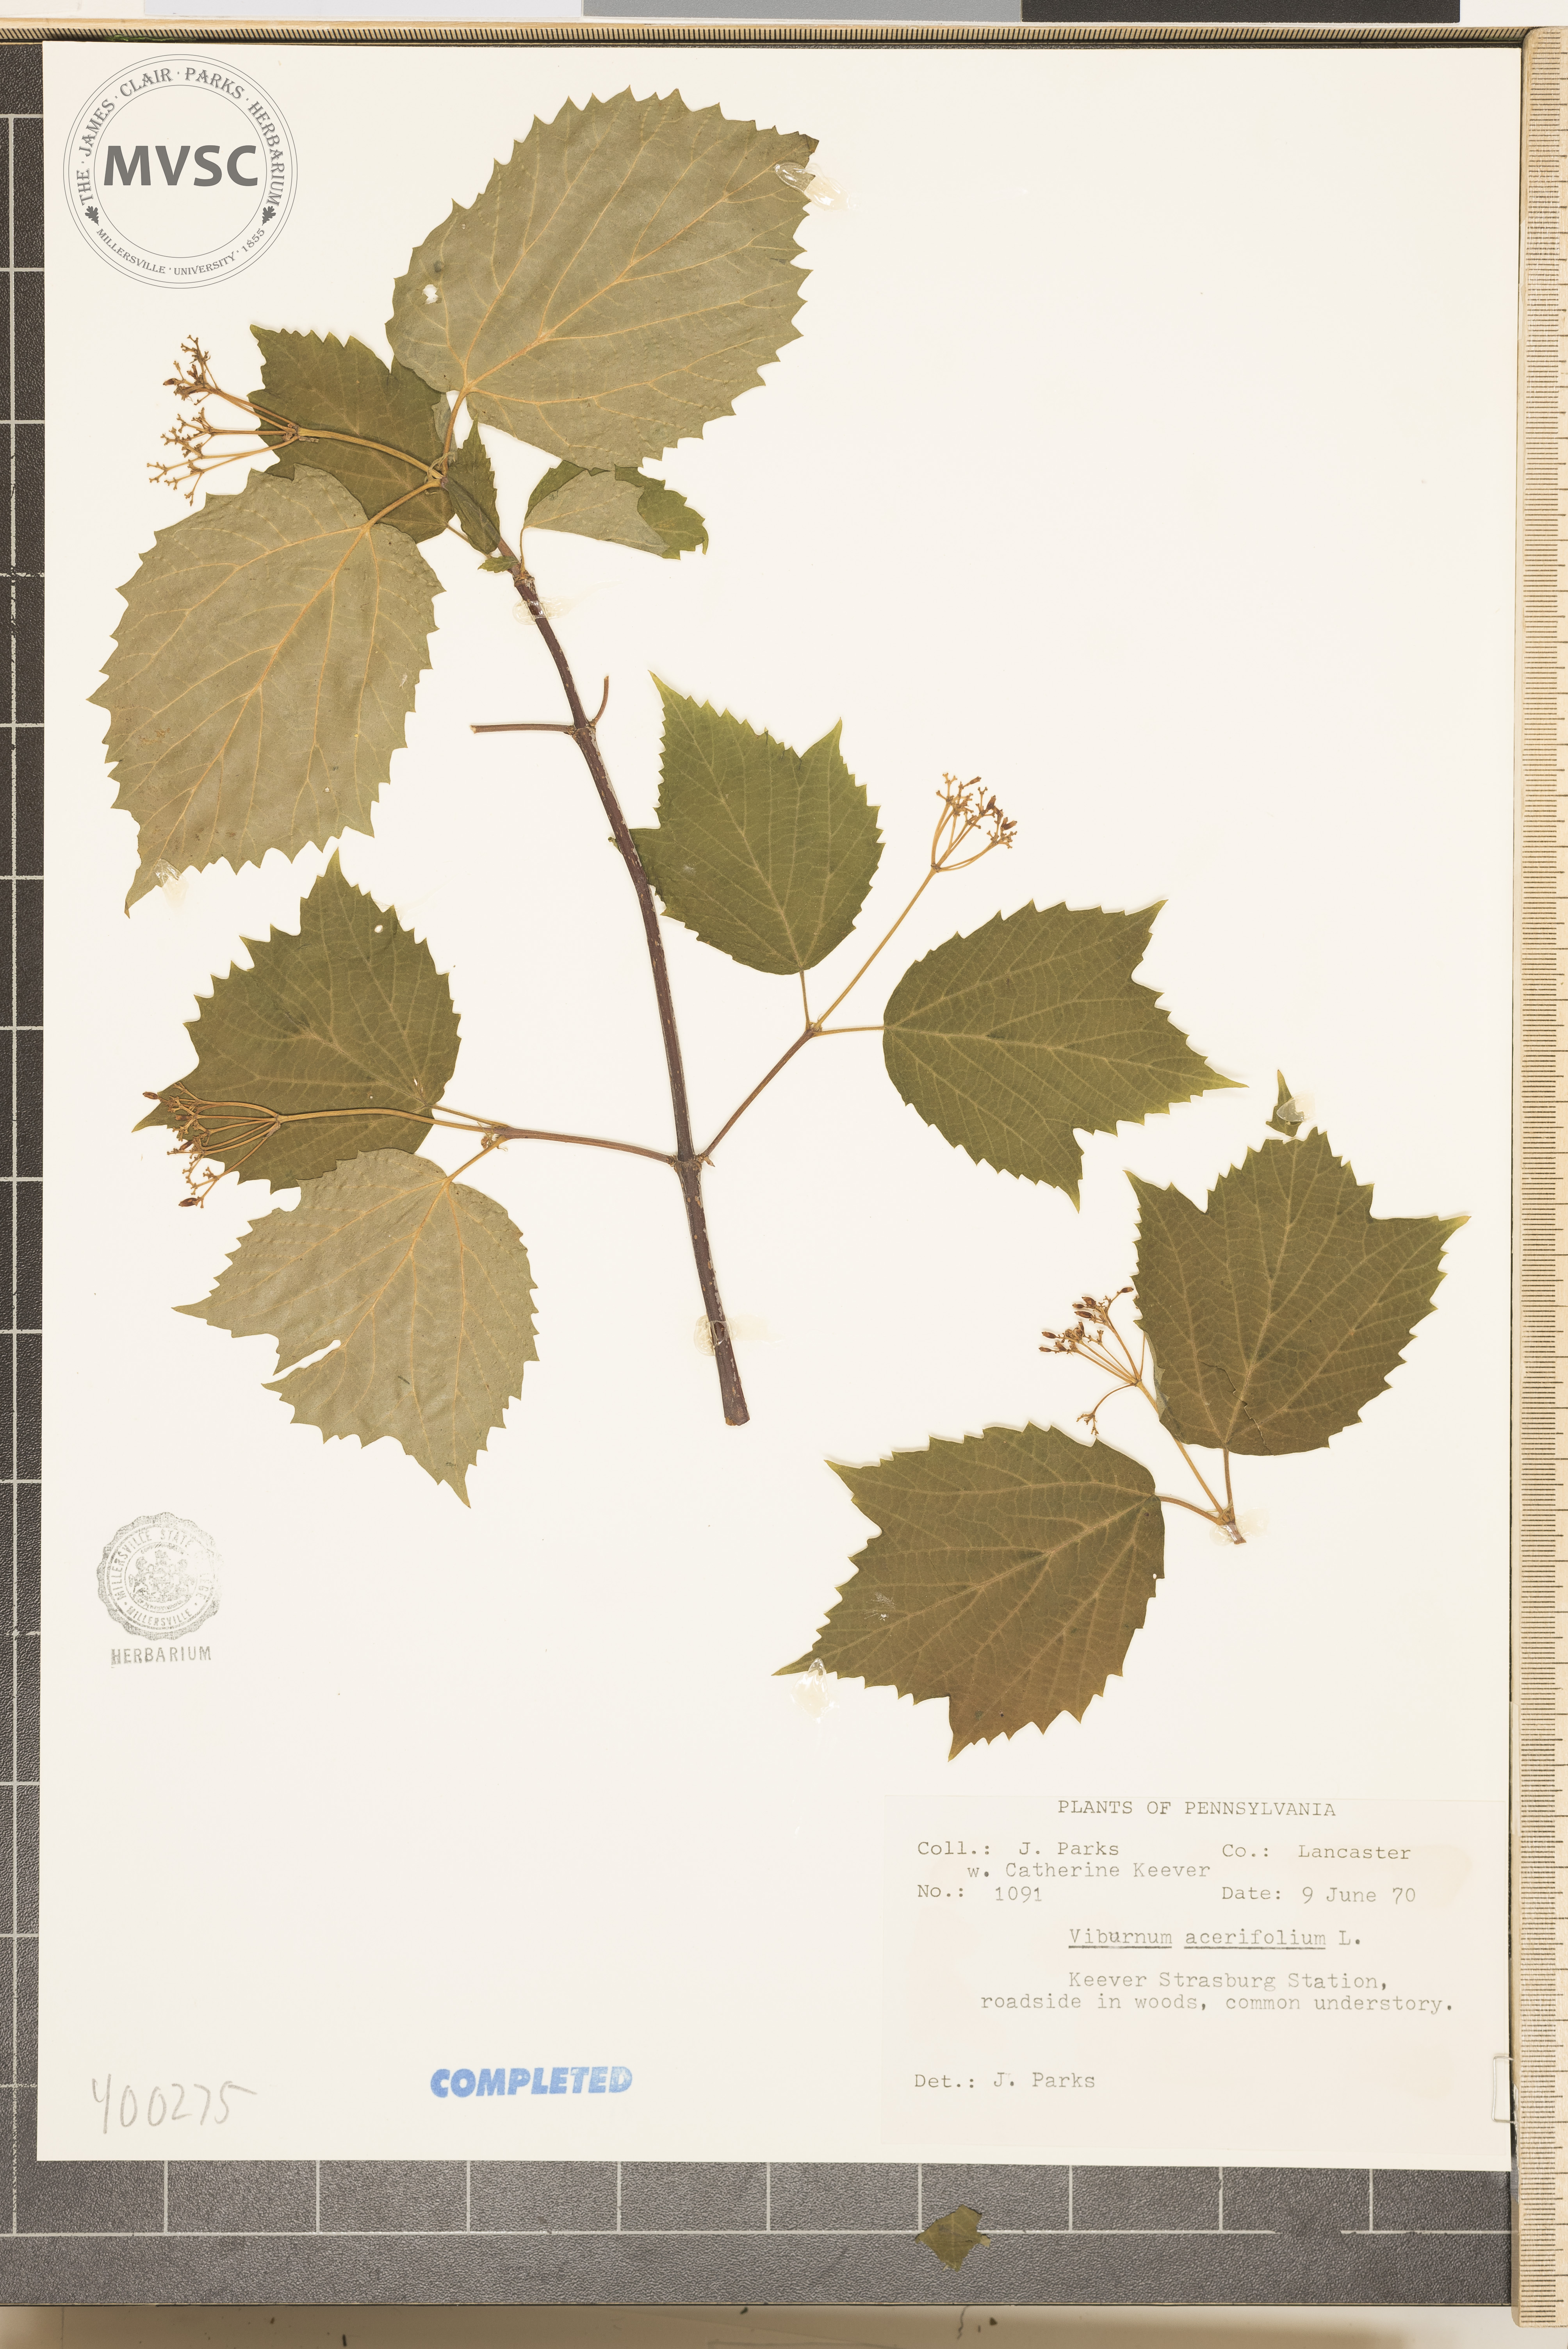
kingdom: Plantae
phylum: Tracheophyta
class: Magnoliopsida
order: Dipsacales
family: Viburnaceae
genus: Viburnum
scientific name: Viburnum acerifolium
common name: mapleleaf viburnum
